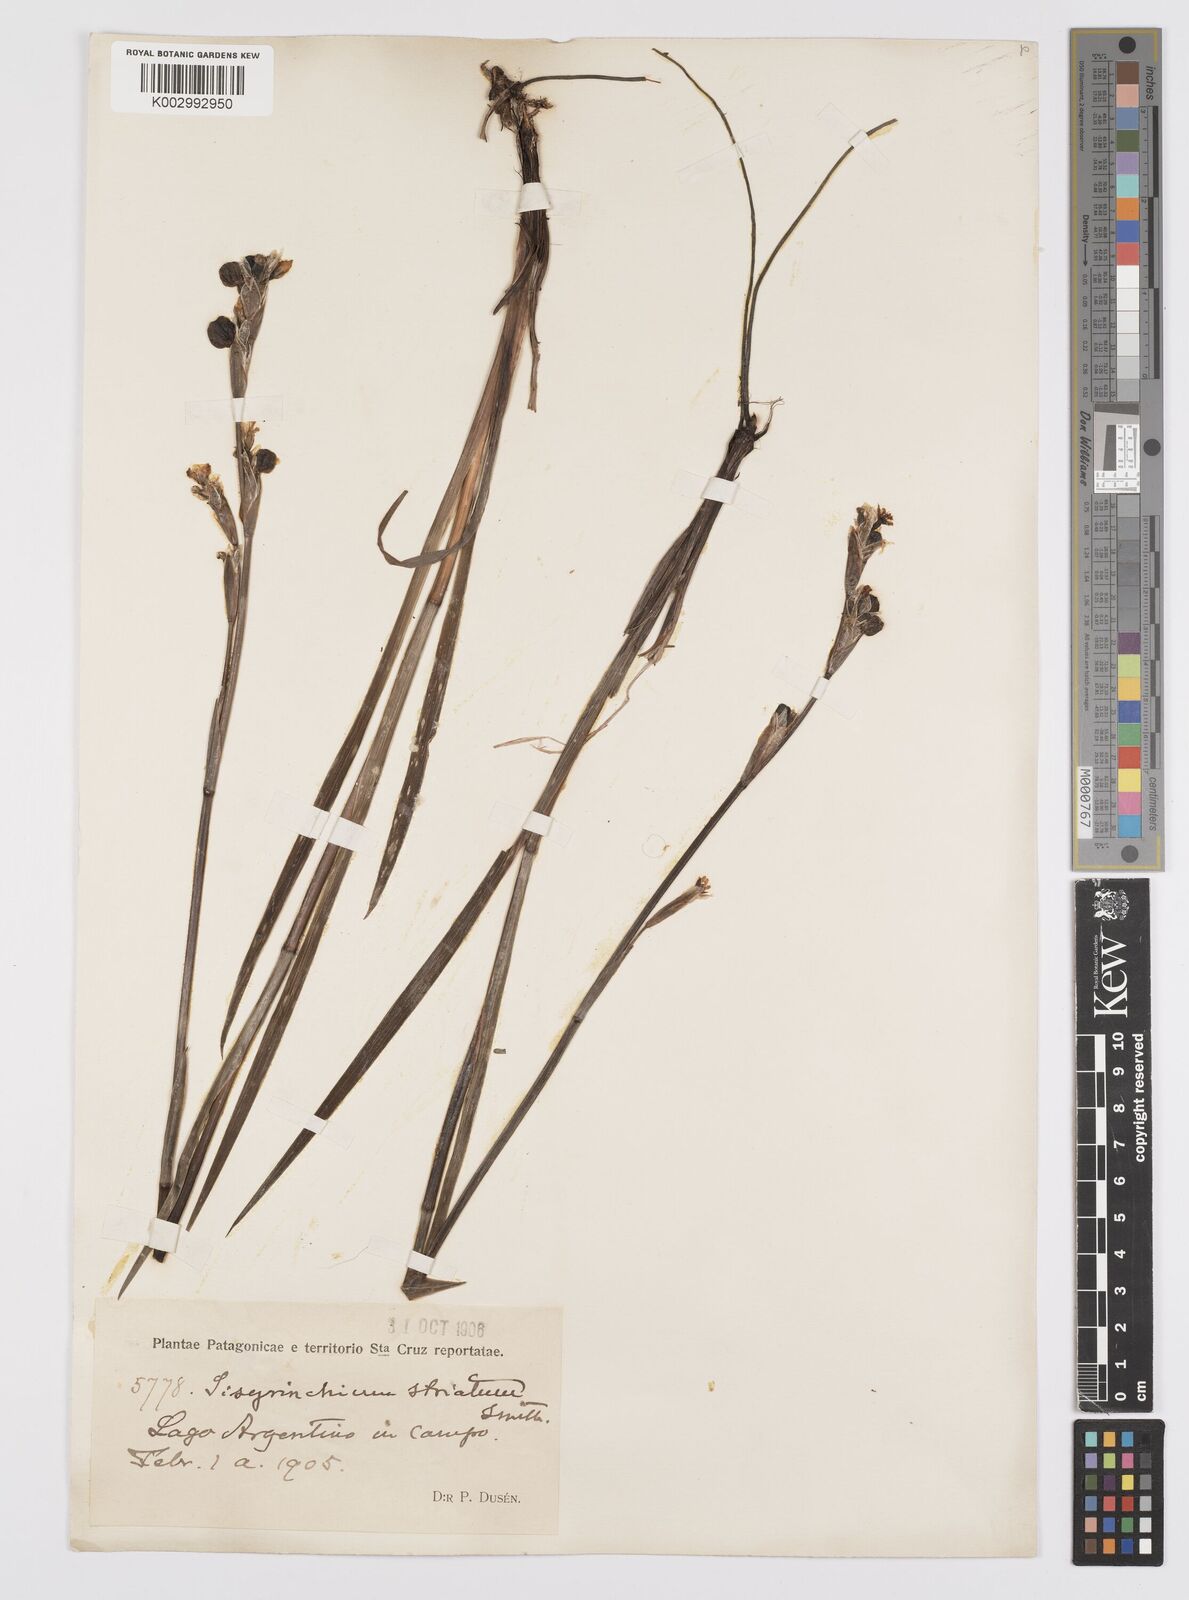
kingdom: Plantae
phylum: Tracheophyta
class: Liliopsida
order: Asparagales
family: Iridaceae
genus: Sisyrinchium
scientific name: Sisyrinchium striatum
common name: Pale yellow-eyed-grass
